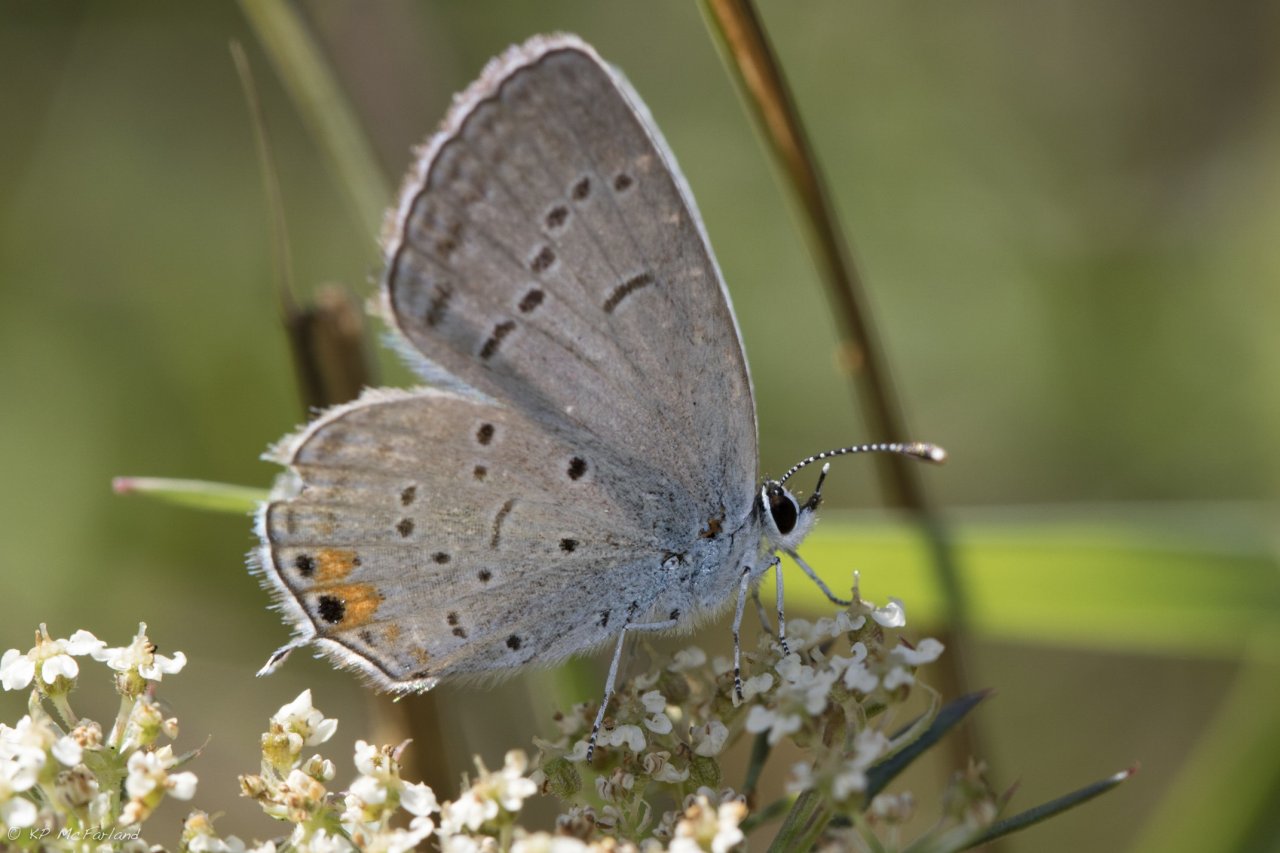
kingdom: Animalia
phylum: Arthropoda
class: Insecta
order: Lepidoptera
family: Lycaenidae
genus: Elkalyce
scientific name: Elkalyce comyntas
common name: Eastern Tailed-Blue
